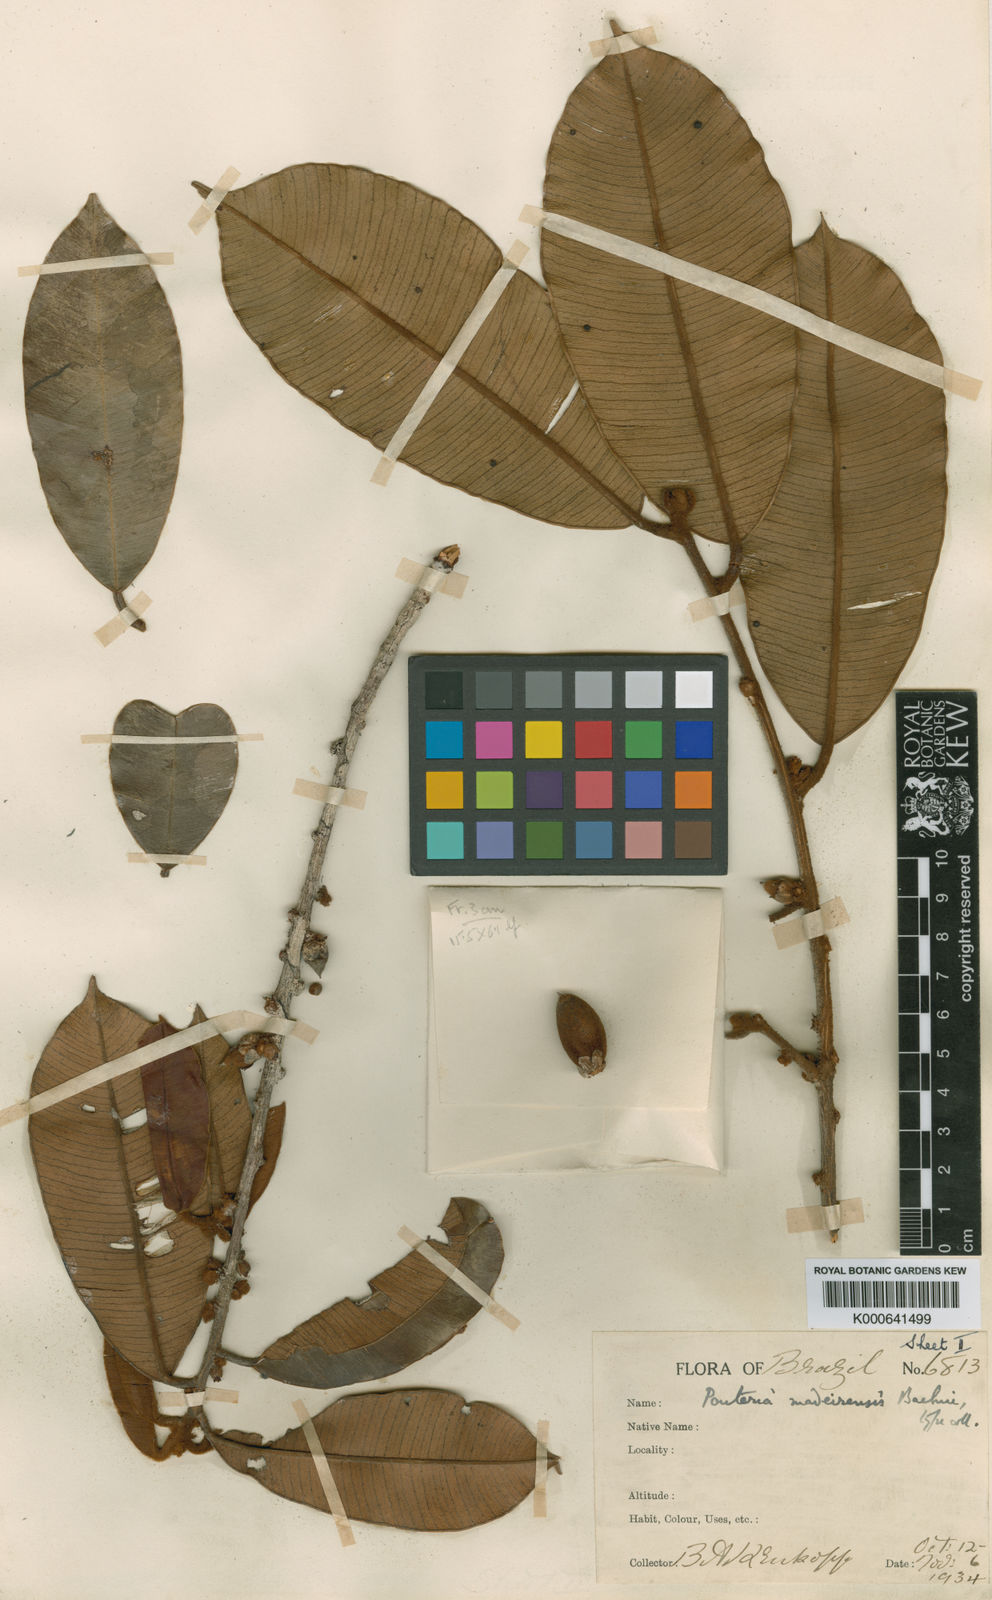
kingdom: Plantae
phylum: Tracheophyta
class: Magnoliopsida
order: Ericales
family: Sapotaceae
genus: Micropholis
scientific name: Micropholis
